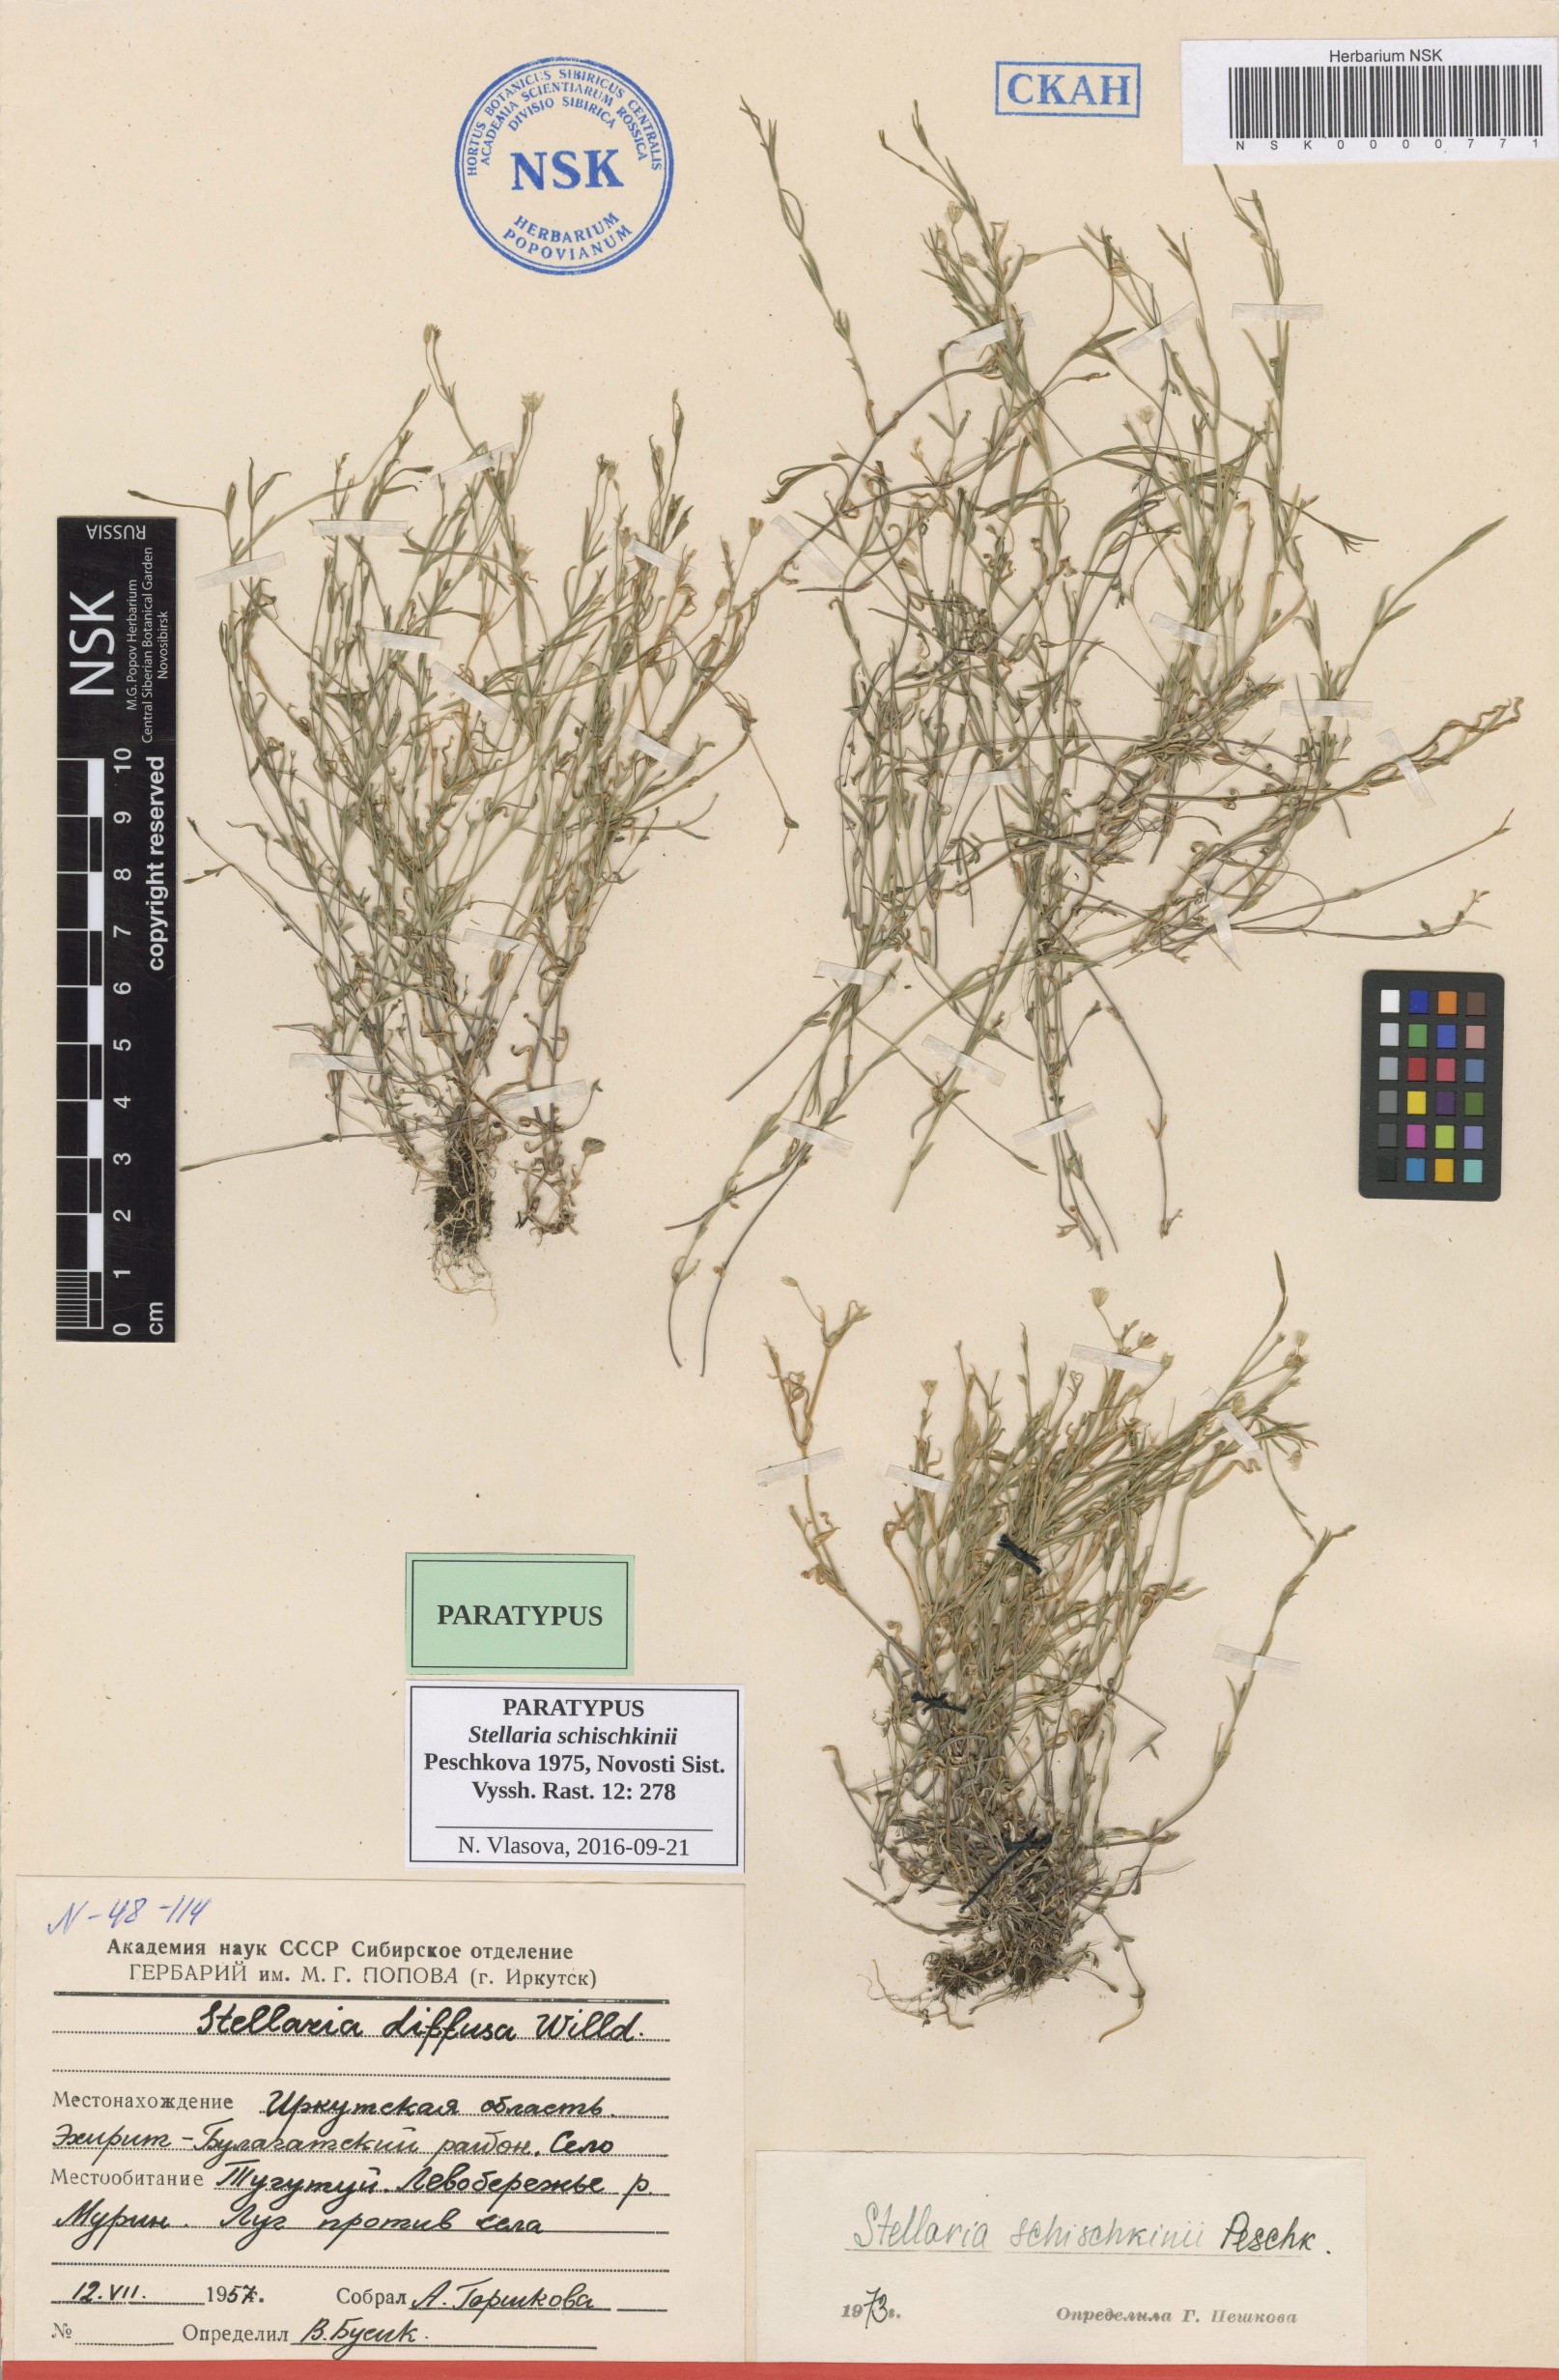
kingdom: Plantae
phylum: Tracheophyta
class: Magnoliopsida
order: Caryophyllales
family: Caryophyllaceae
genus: Stellaria
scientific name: Stellaria schischkinii
